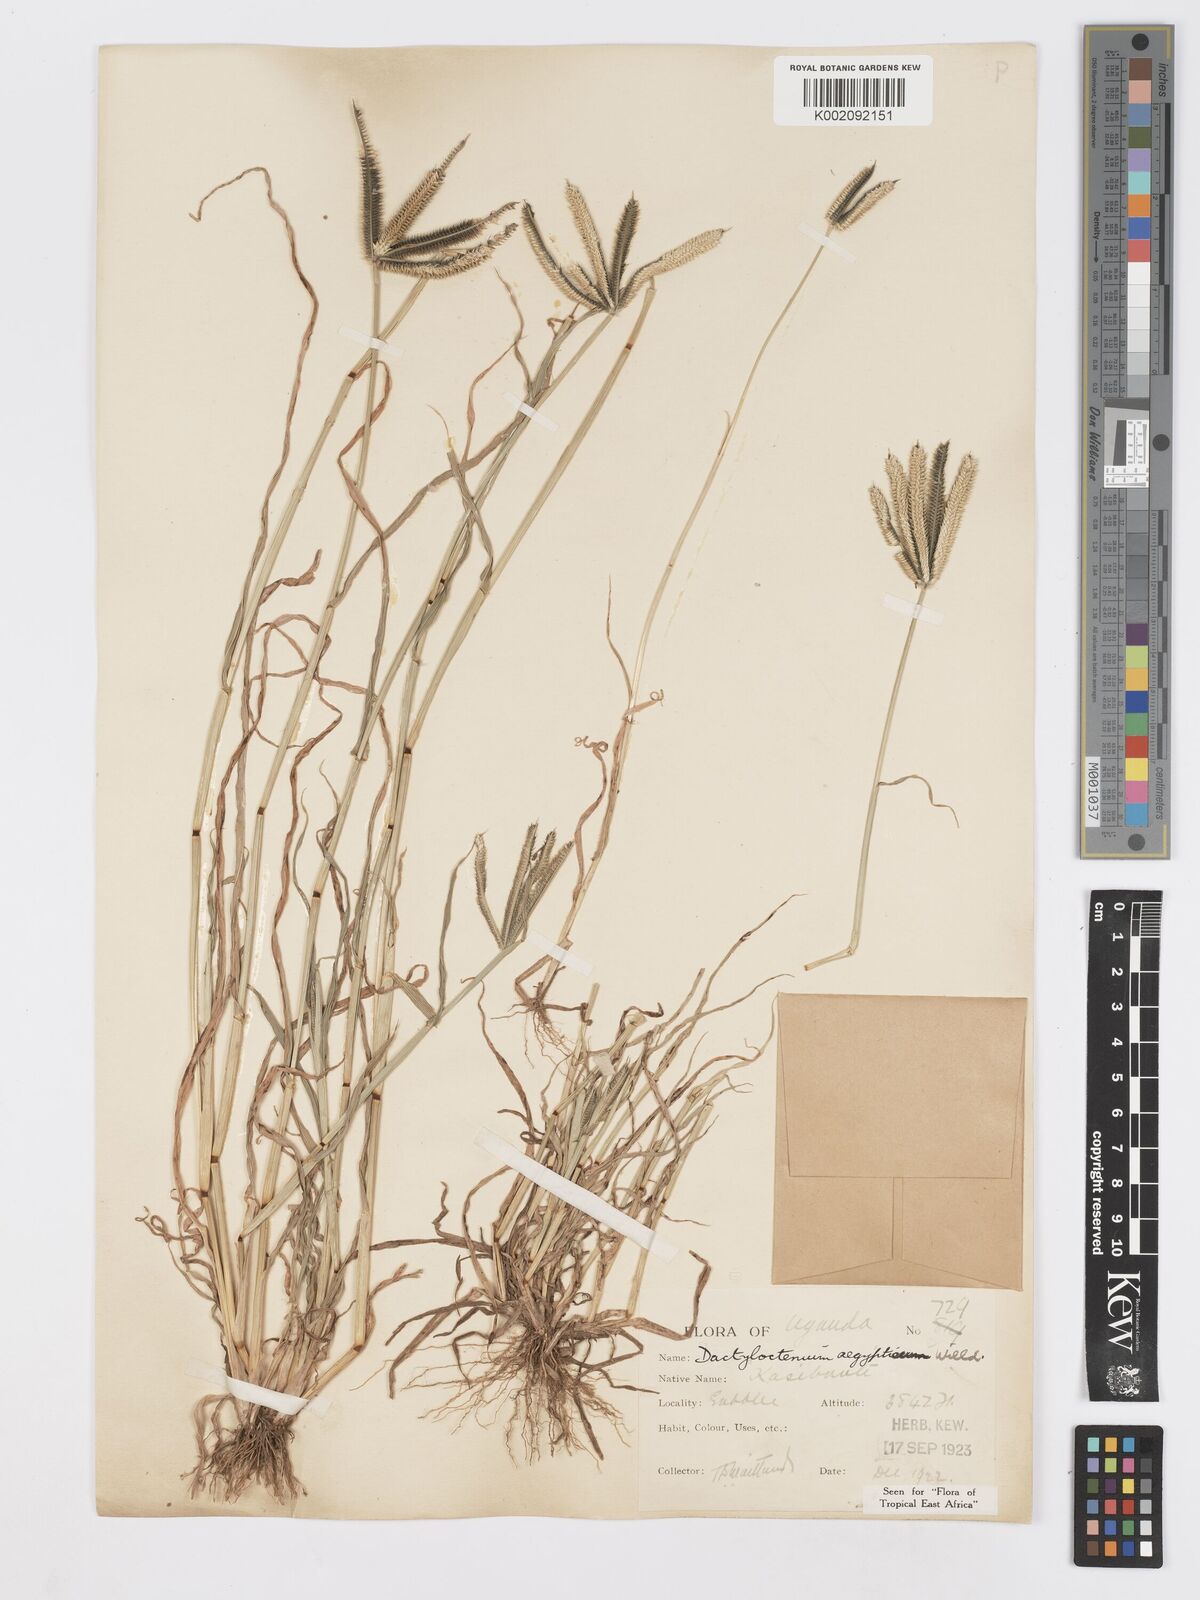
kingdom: Plantae
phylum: Tracheophyta
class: Liliopsida
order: Poales
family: Poaceae
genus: Dactyloctenium
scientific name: Dactyloctenium aegyptium
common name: Egyptian grass
